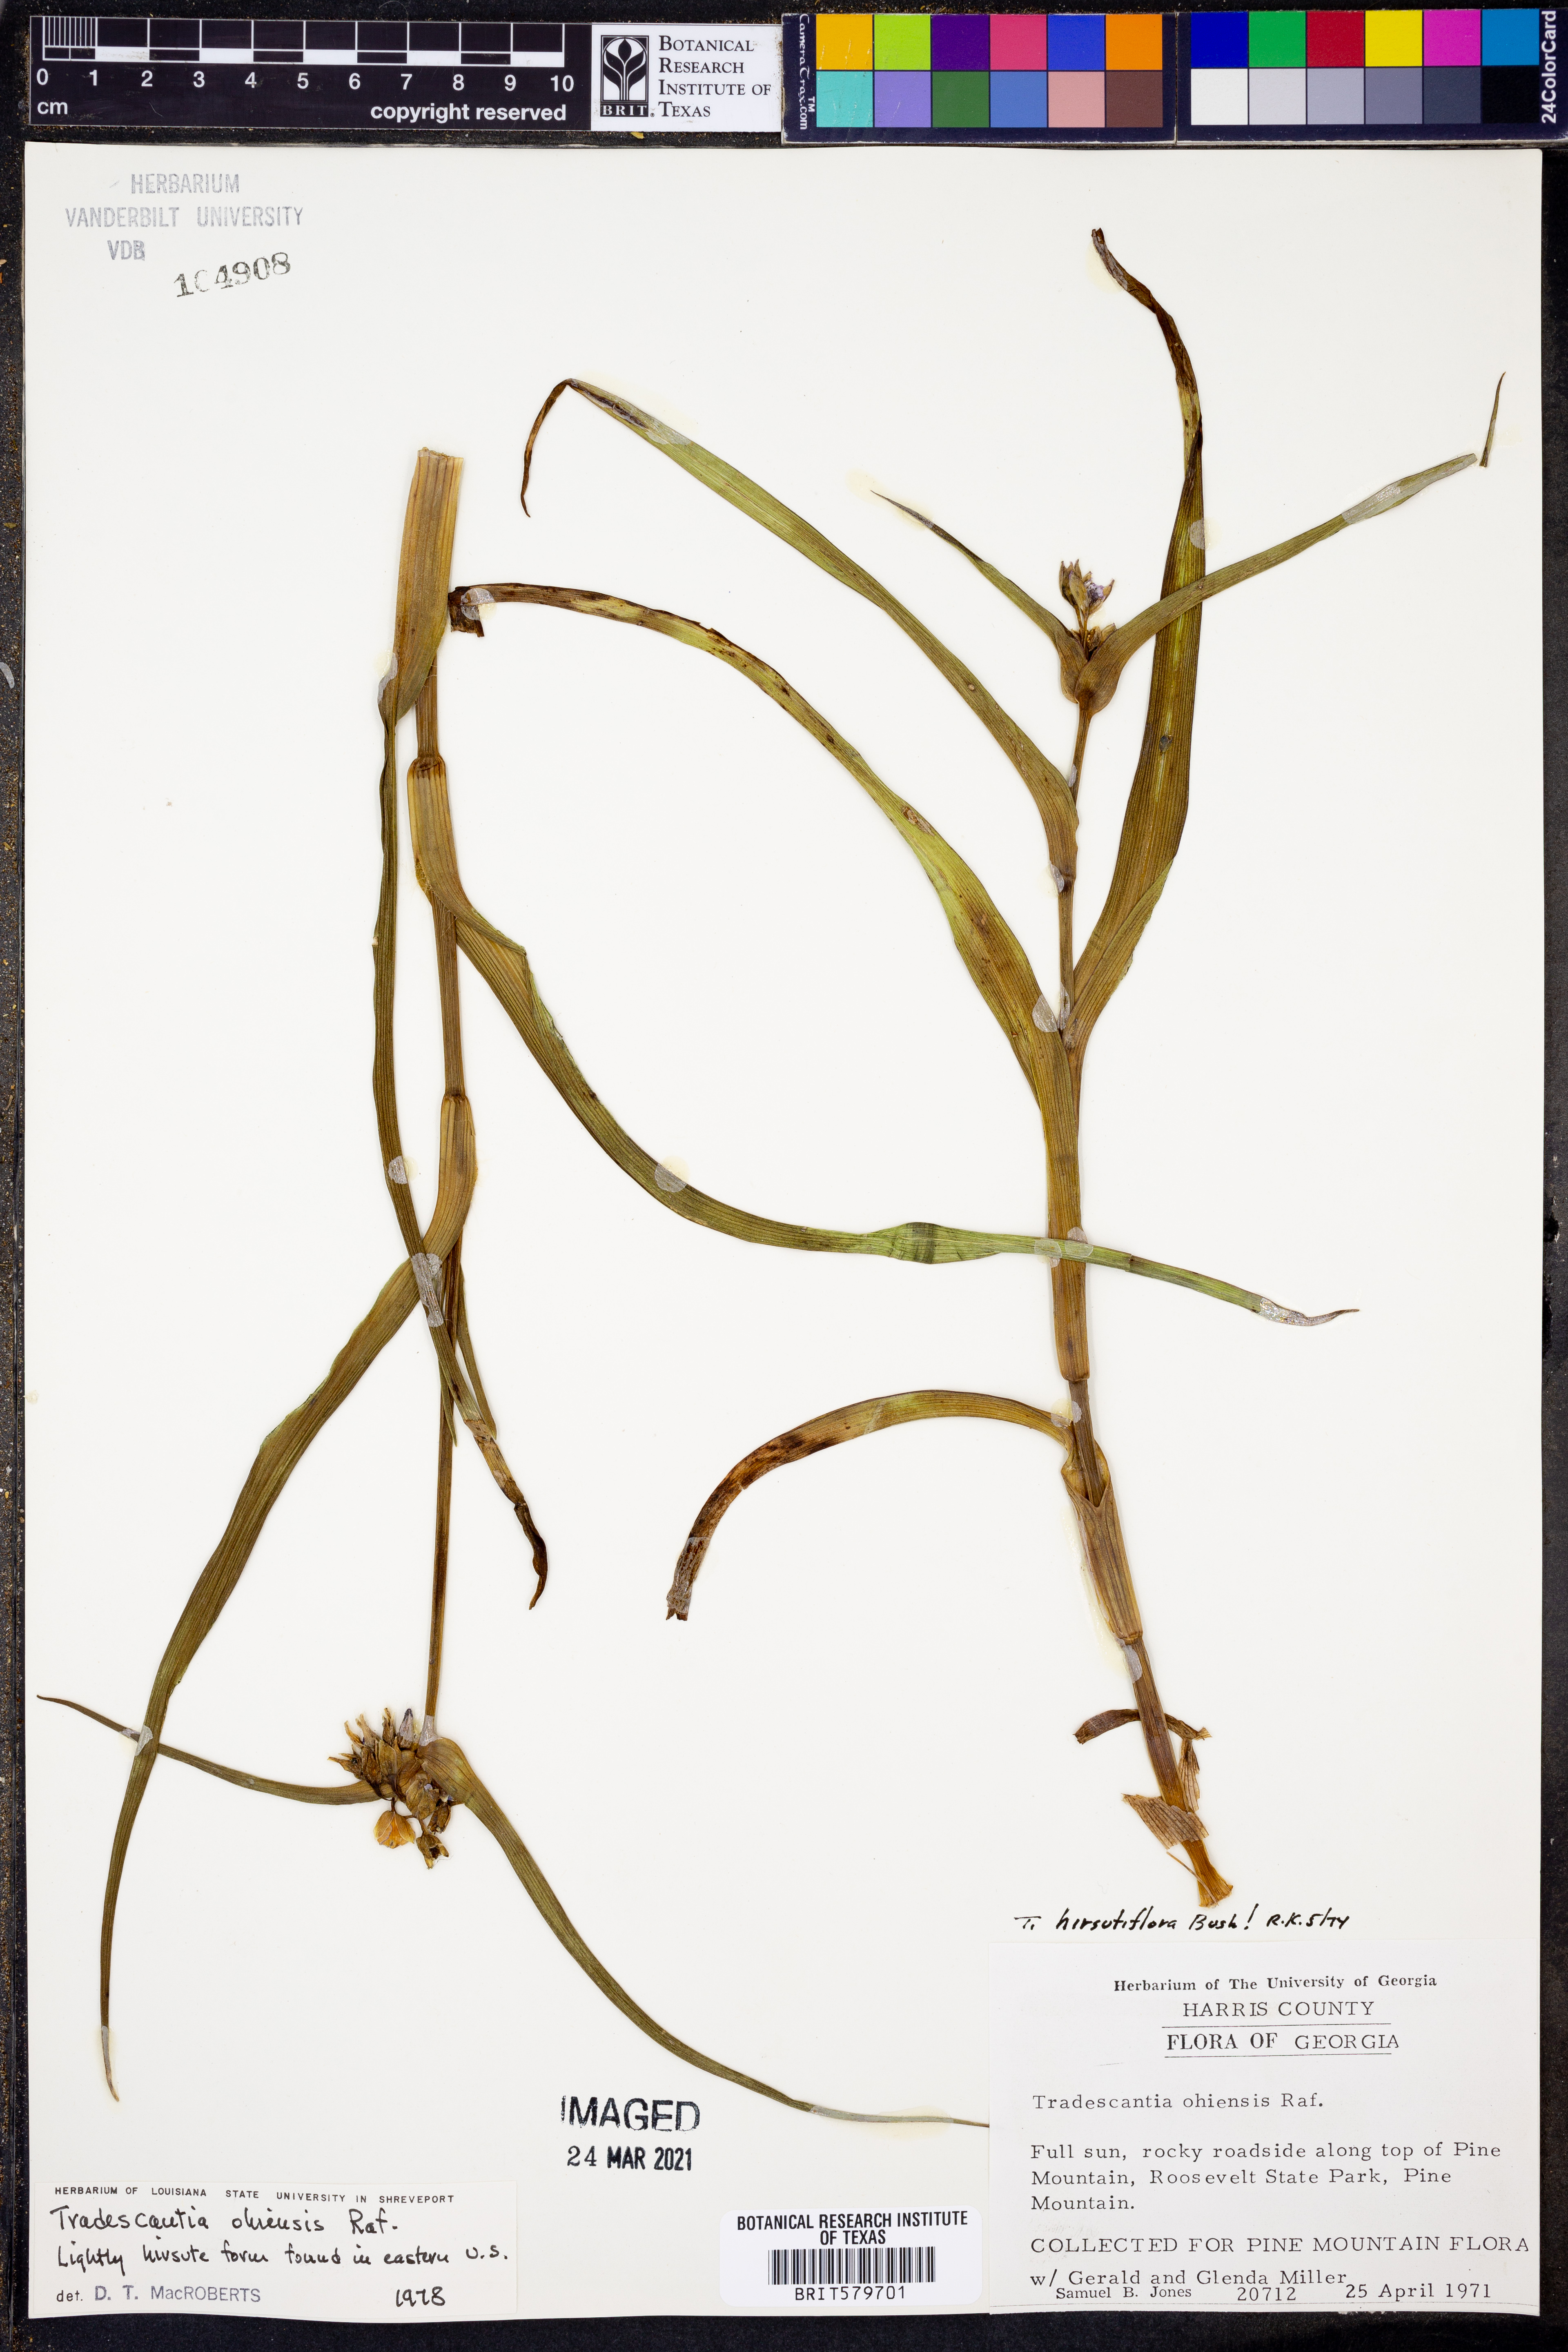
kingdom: Plantae
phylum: Tracheophyta
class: Liliopsida
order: Commelinales
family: Commelinaceae
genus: Tradescantia
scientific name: Tradescantia ohiensis
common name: Ohio spiderwort
